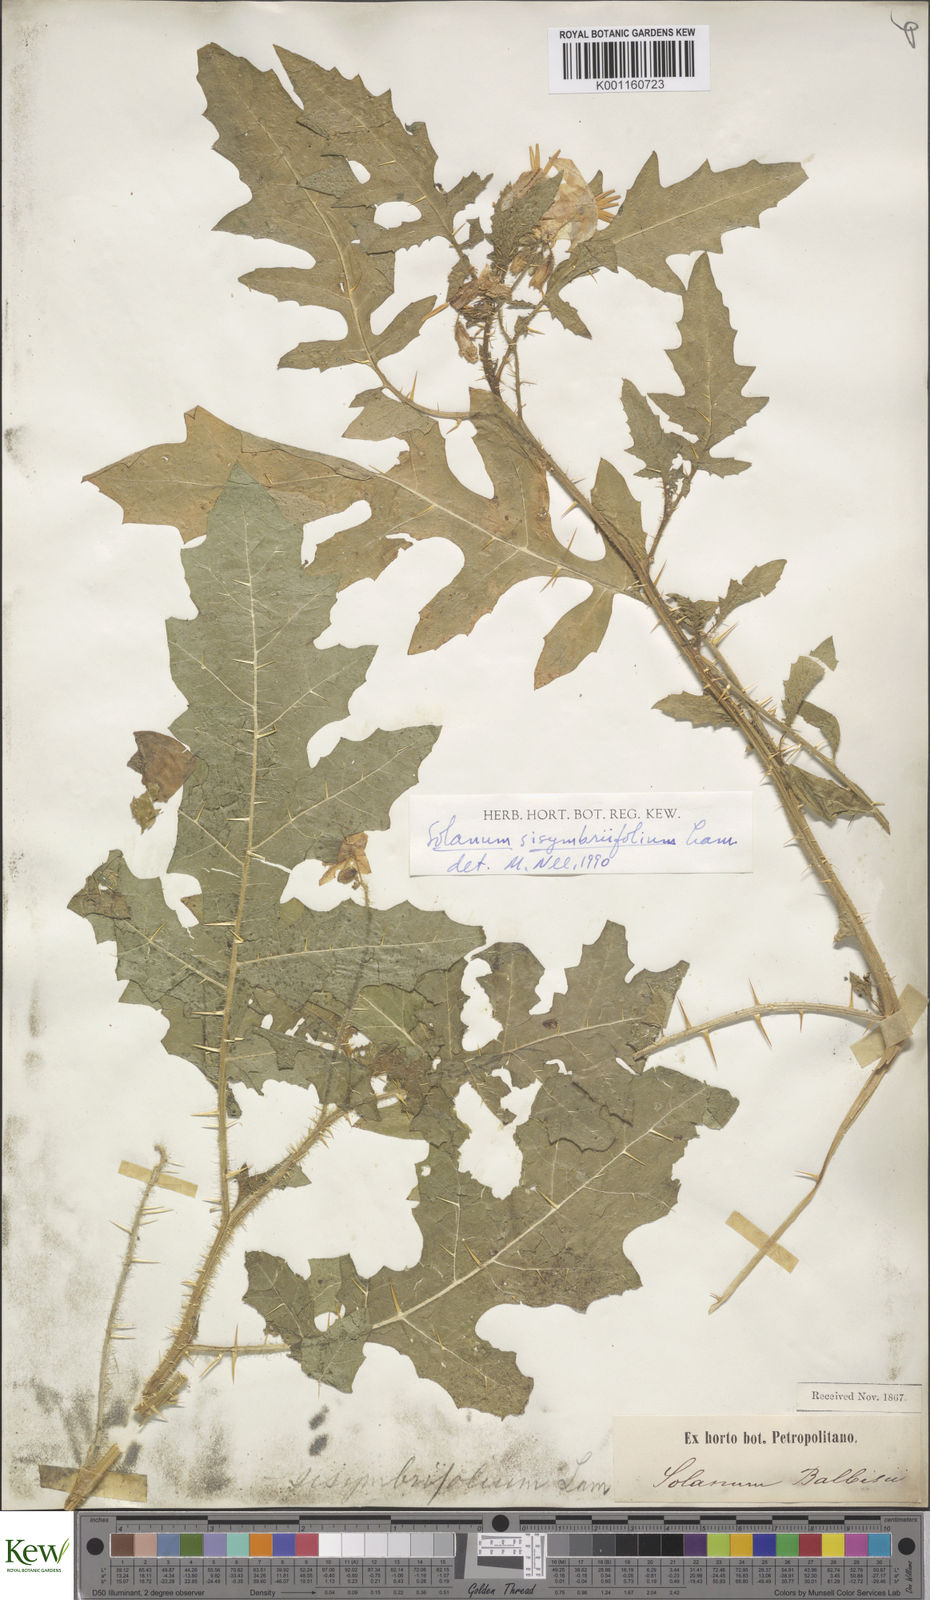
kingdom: Plantae
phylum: Tracheophyta
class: Magnoliopsida
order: Solanales
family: Solanaceae
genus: Solanum
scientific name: Solanum sisymbriifolium
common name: Red buffalo-bur
